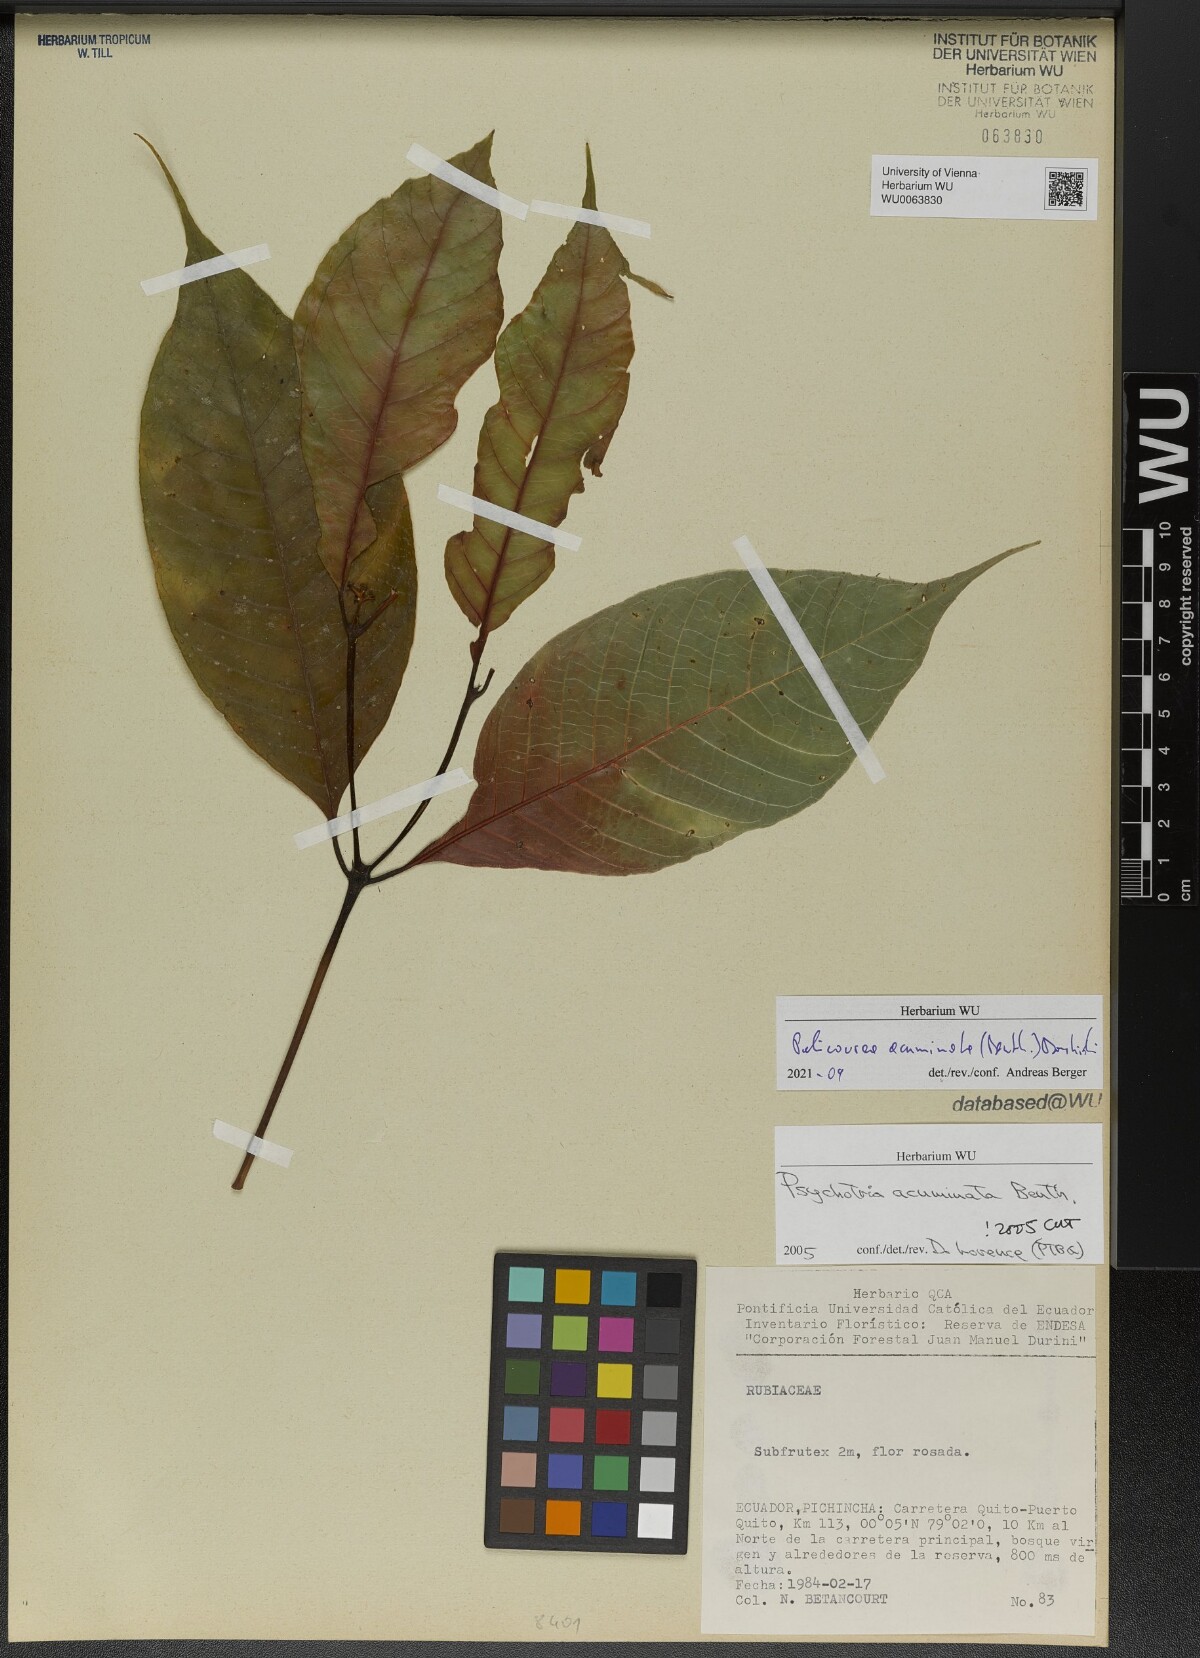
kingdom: Plantae
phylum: Tracheophyta
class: Magnoliopsida
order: Gentianales
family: Rubiaceae
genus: Palicourea
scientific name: Palicourea acuminata
